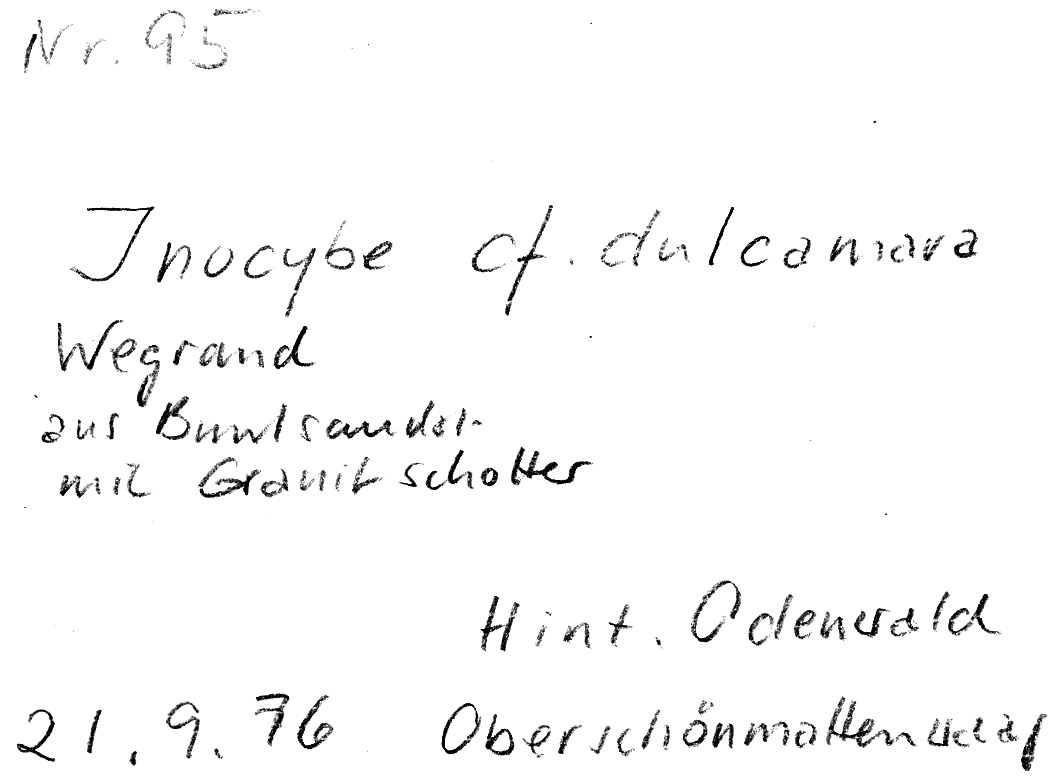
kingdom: Fungi
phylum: Basidiomycota
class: Agaricomycetes
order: Agaricales
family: Inocybaceae
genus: Inocybe
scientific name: Inocybe dulcamara
